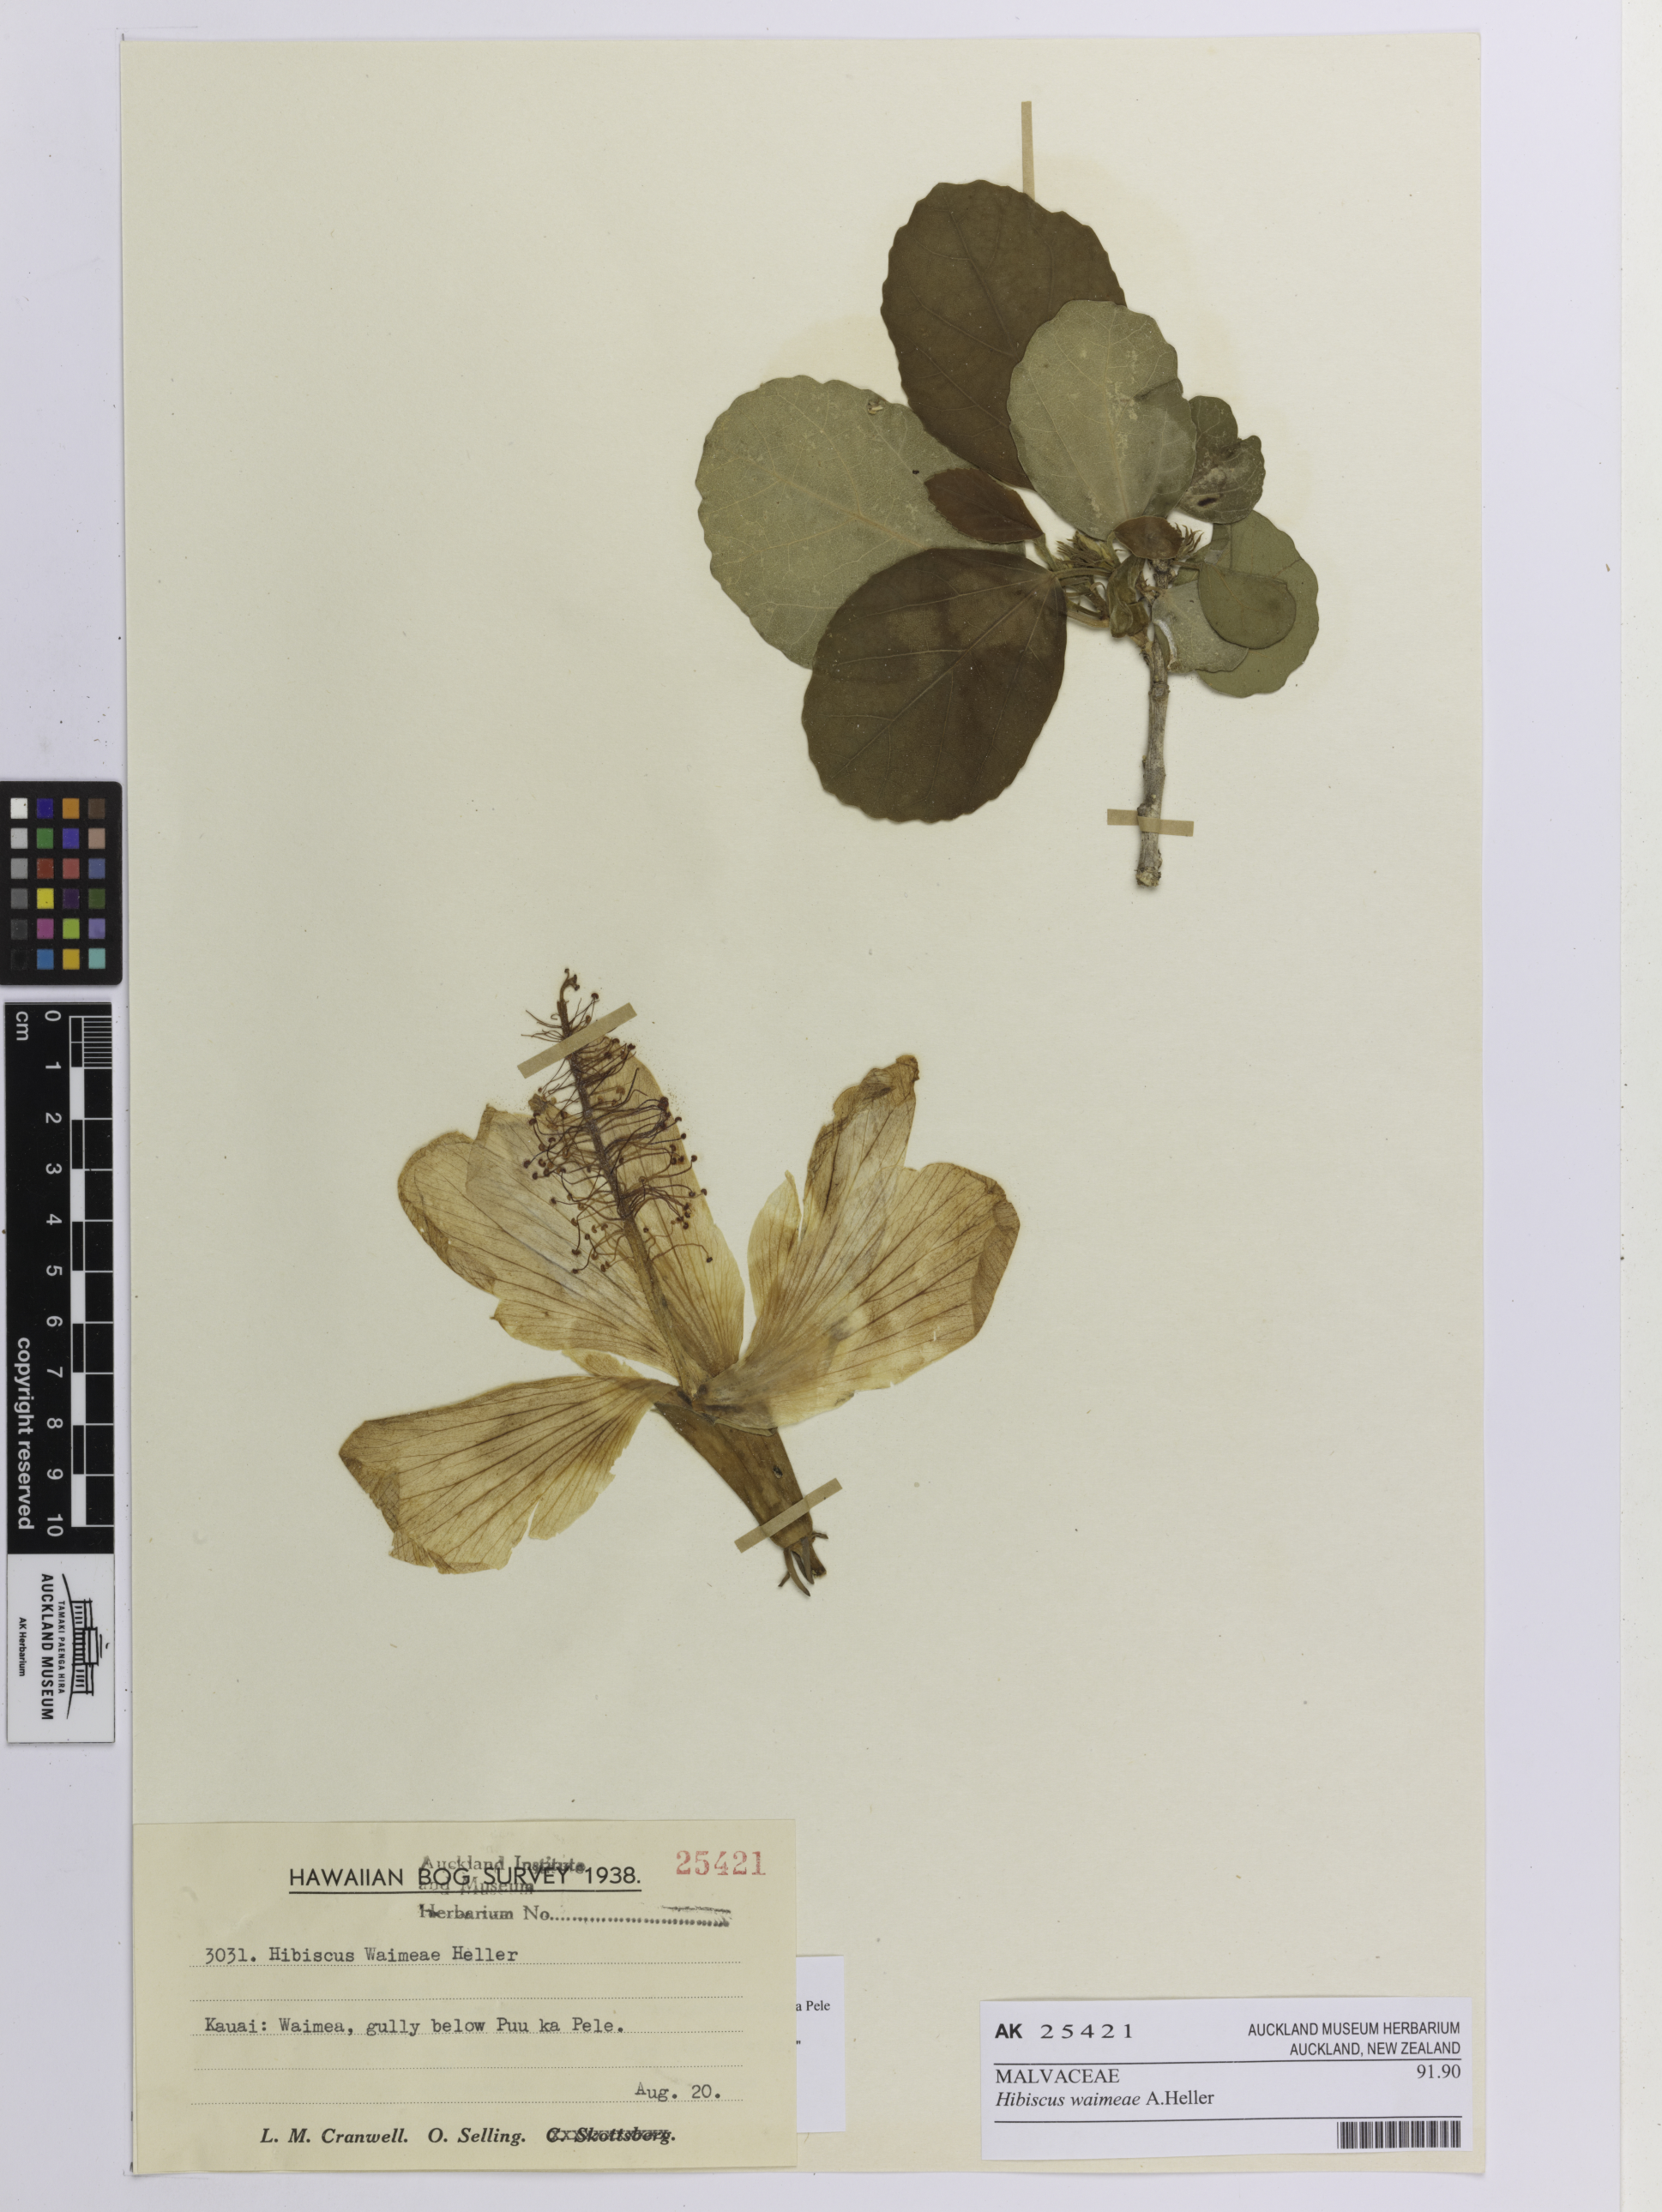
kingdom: Plantae
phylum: Tracheophyta
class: Magnoliopsida
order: Malvales
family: Malvaceae
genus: Hibiscus
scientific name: Hibiscus waimeae
